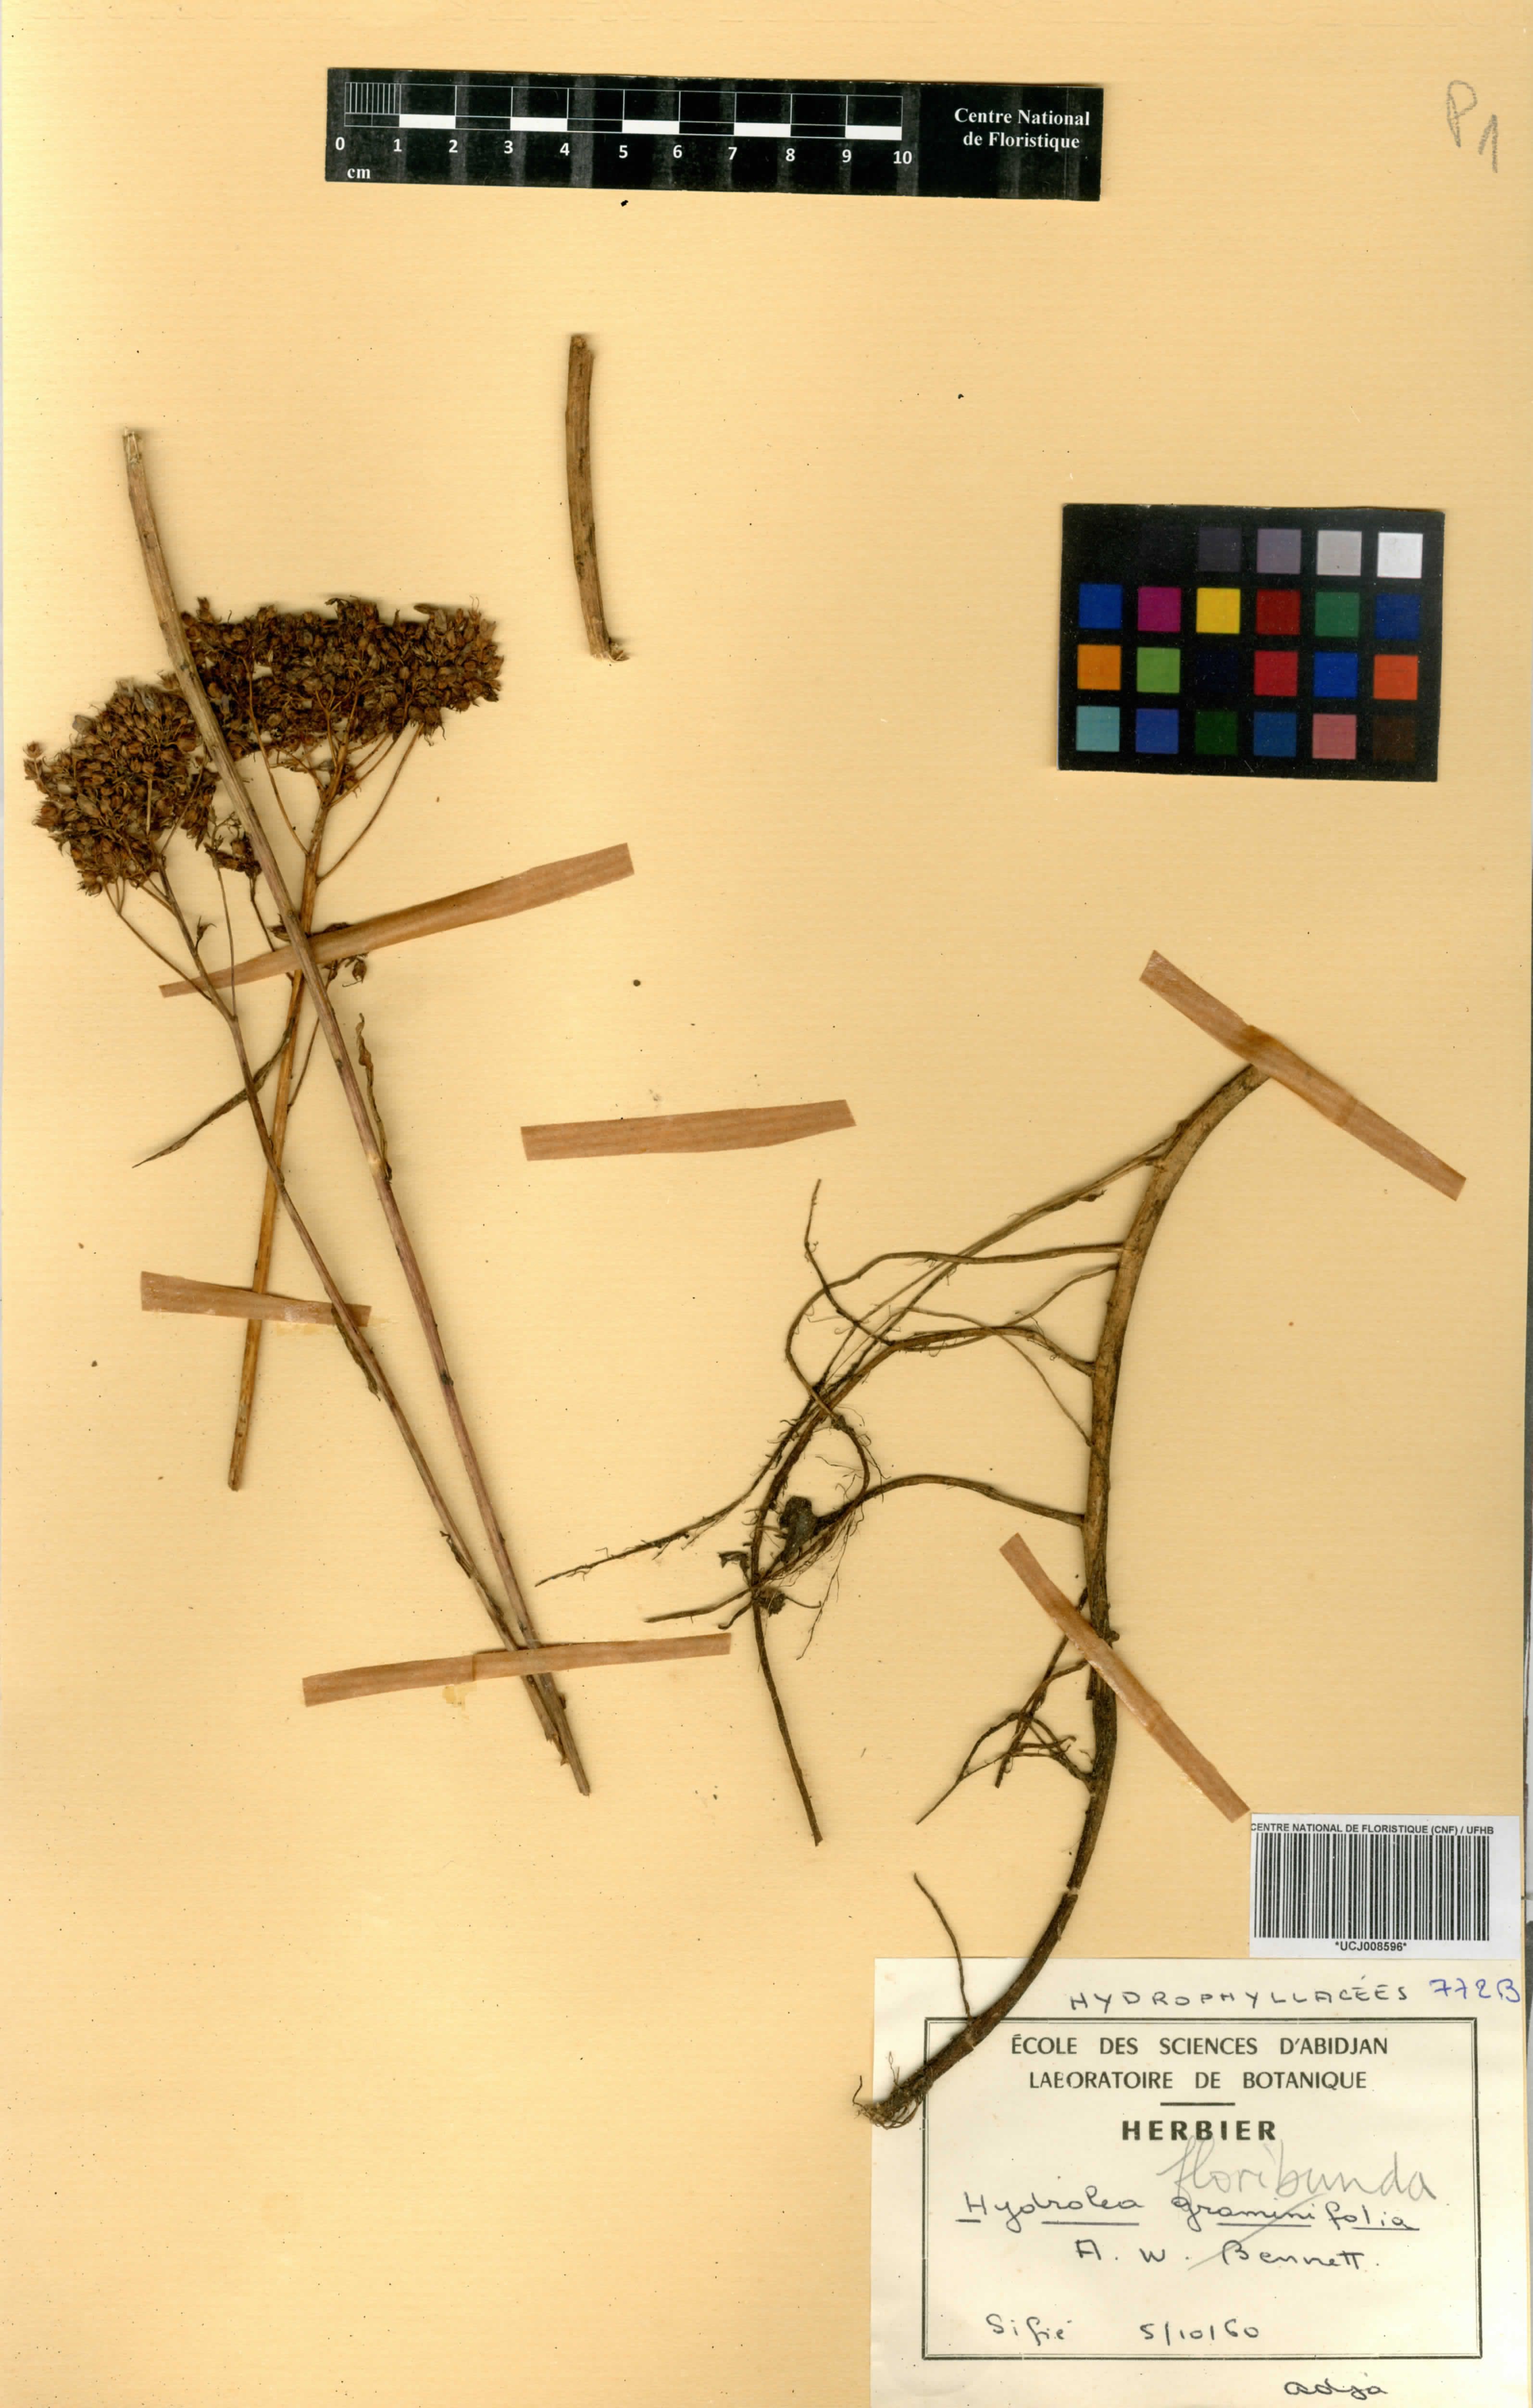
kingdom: Plantae
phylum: Tracheophyta
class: Magnoliopsida
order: Boraginales
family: Hydrophyllaceae
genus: Hydrolea
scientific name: Hydrolea
